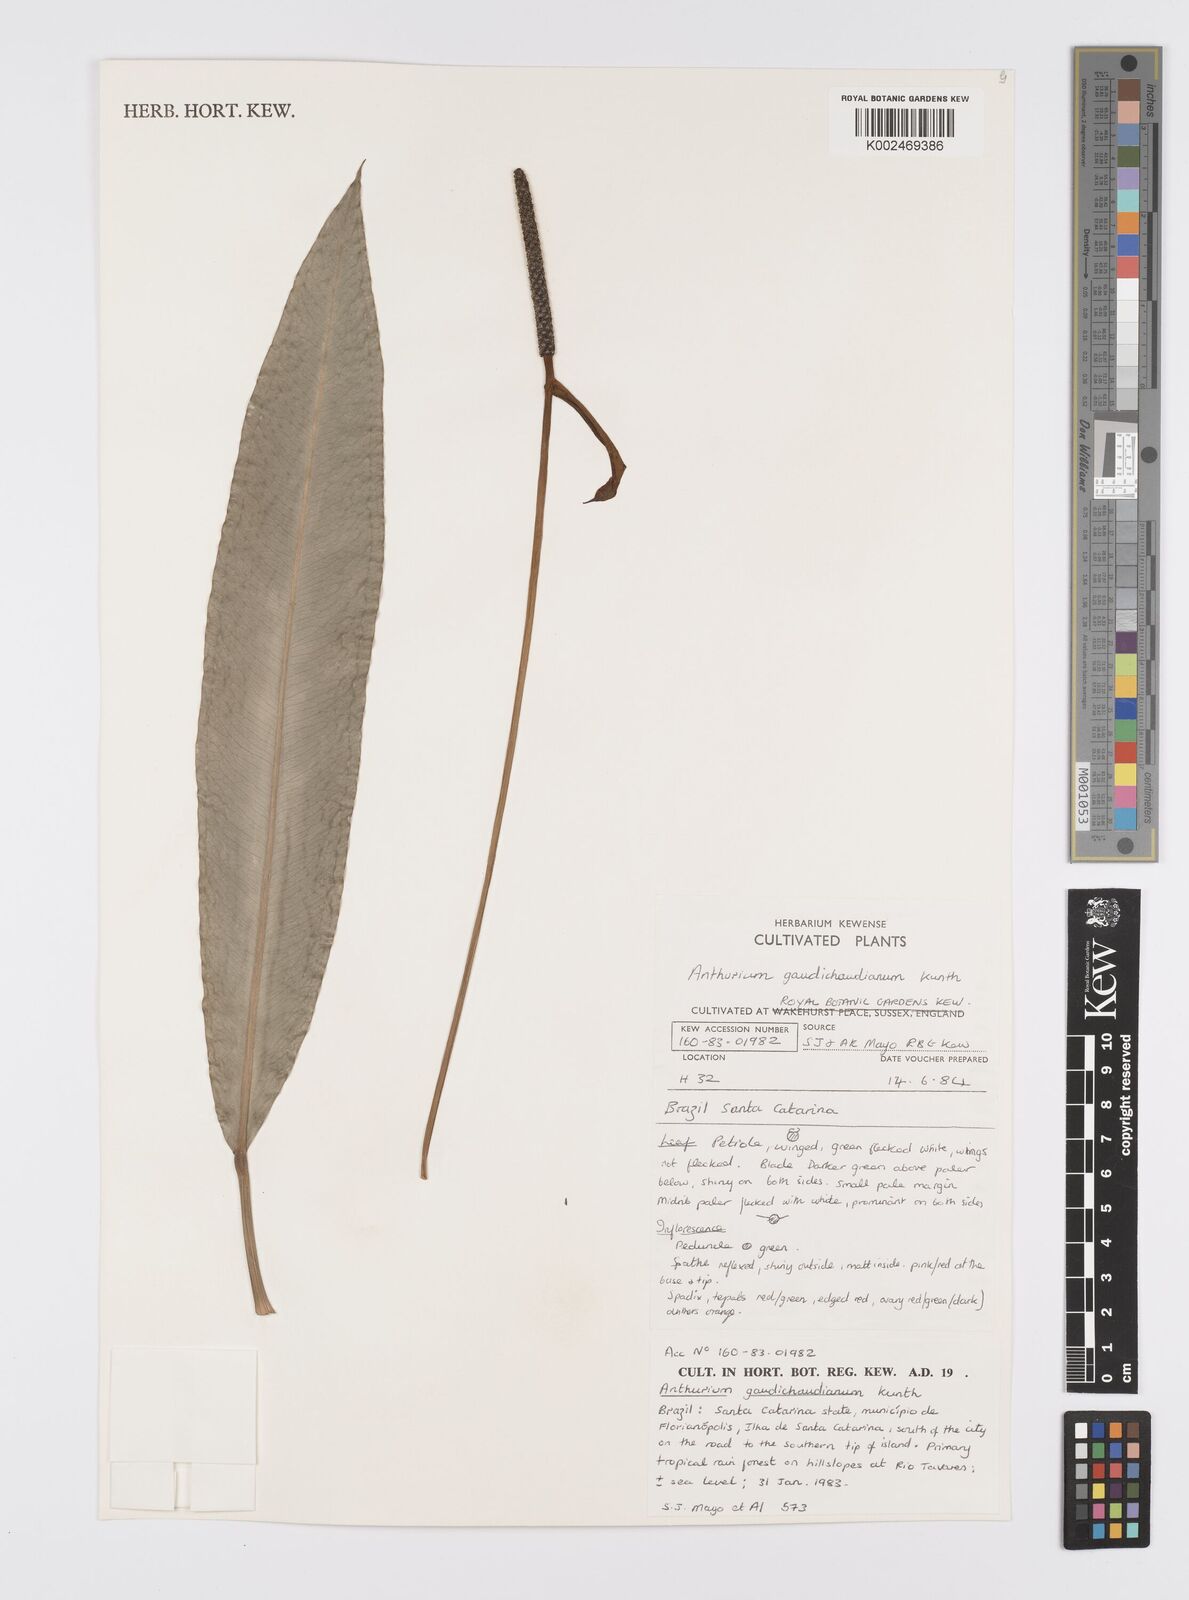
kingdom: Plantae
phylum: Tracheophyta
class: Liliopsida
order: Alismatales
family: Araceae
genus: Anthurium
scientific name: Anthurium gaudichaudianum
